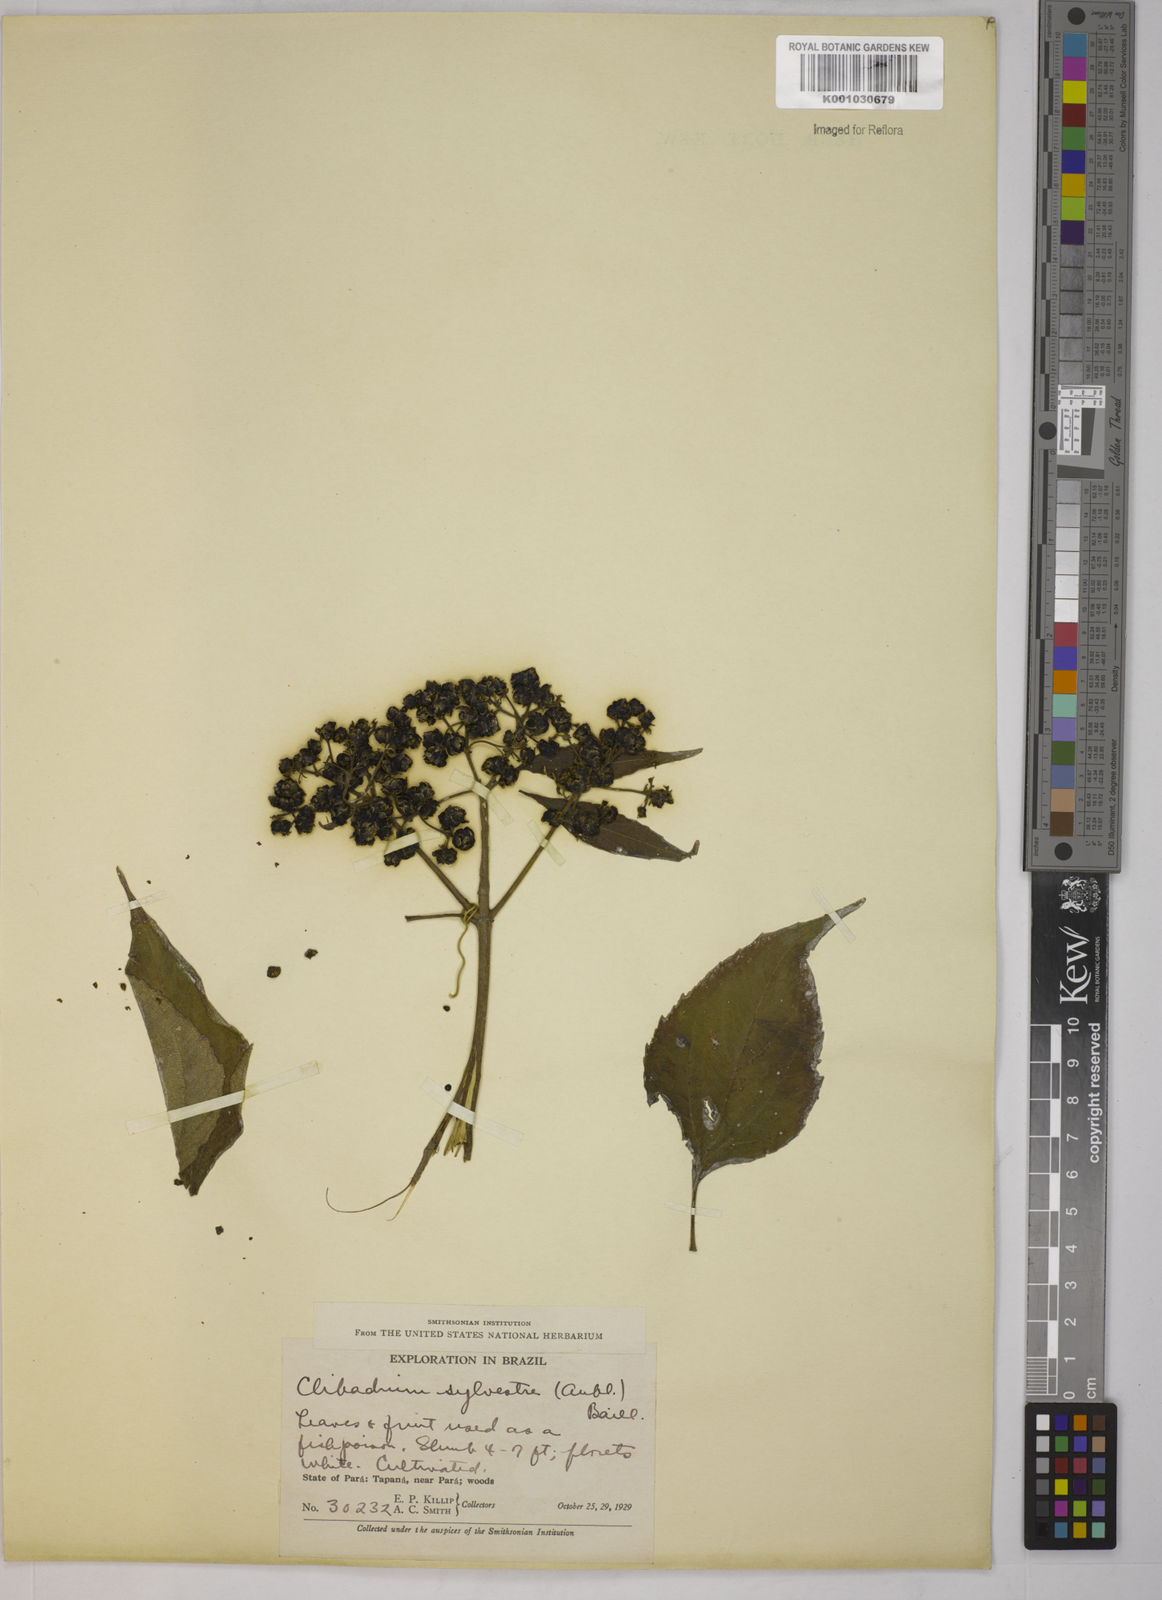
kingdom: Plantae
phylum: Tracheophyta
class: Magnoliopsida
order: Asterales
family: Asteraceae
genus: Clibadium
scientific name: Clibadium sylvestre
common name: Barbasco
